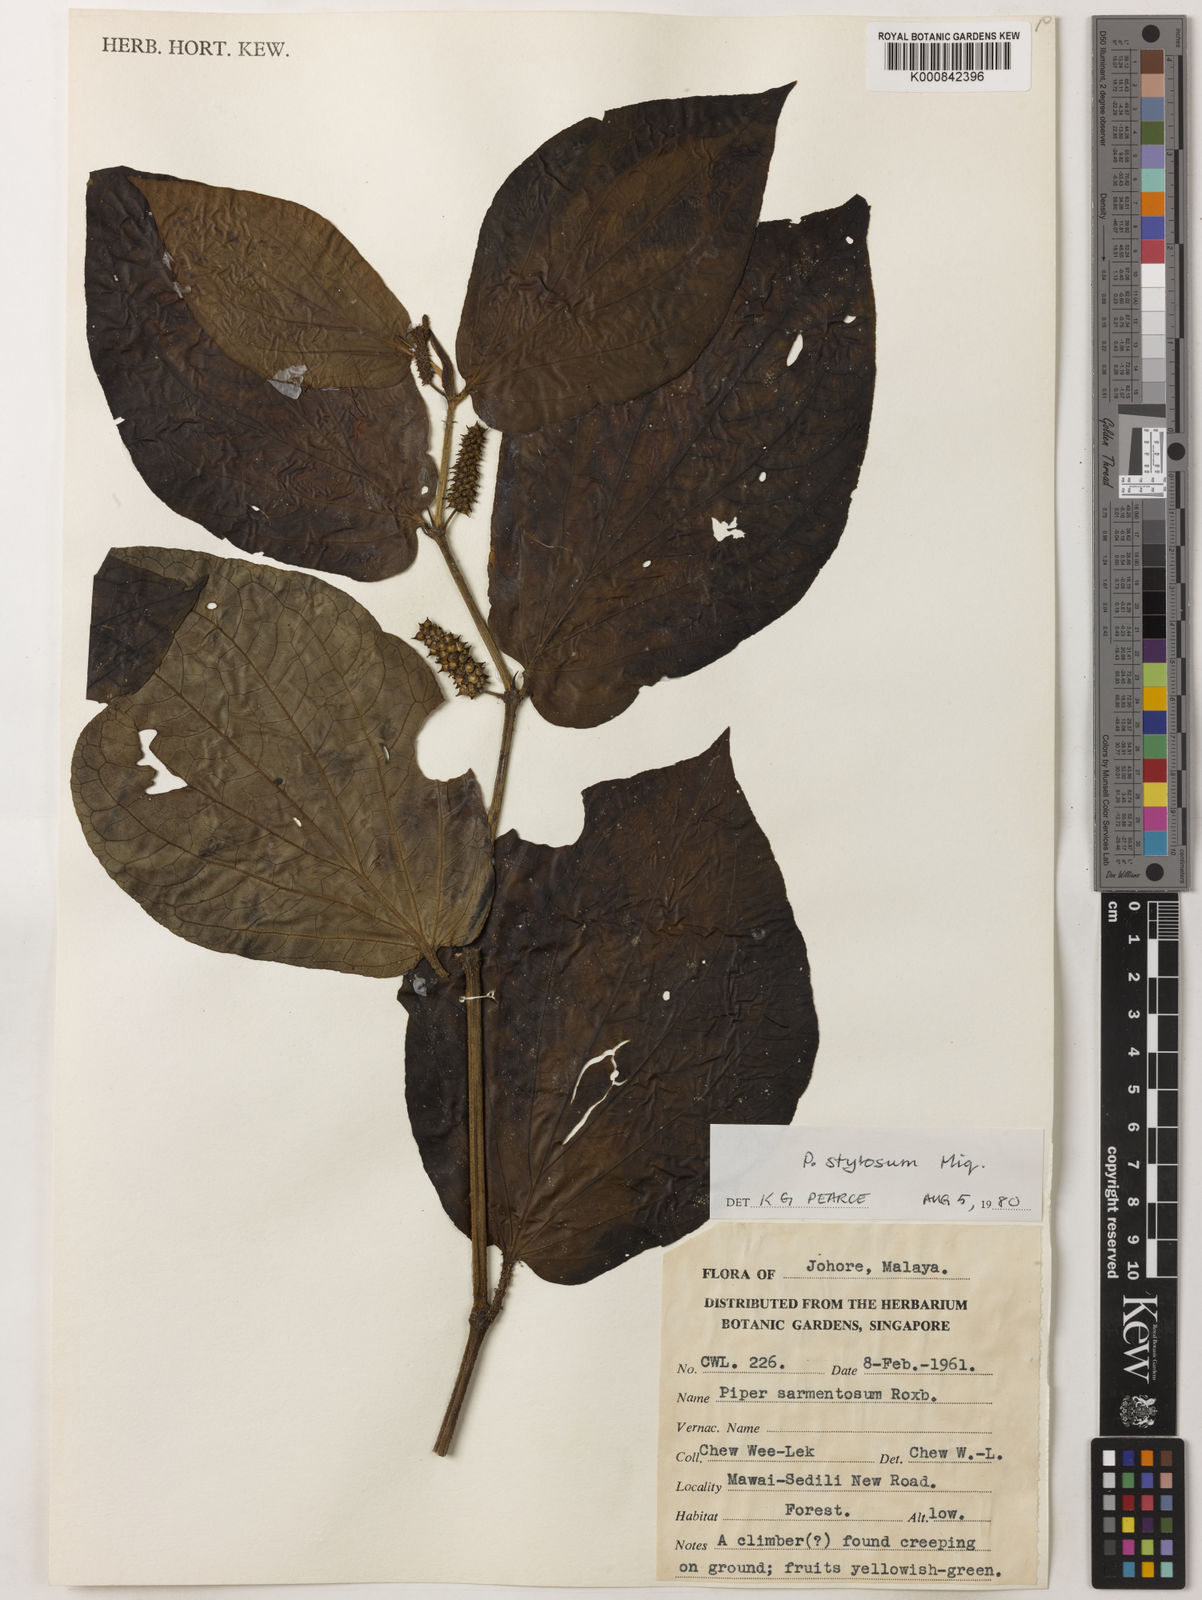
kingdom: Plantae
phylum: Tracheophyta
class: Magnoliopsida
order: Piperales
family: Piperaceae
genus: Piper
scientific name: Piper rostratum
